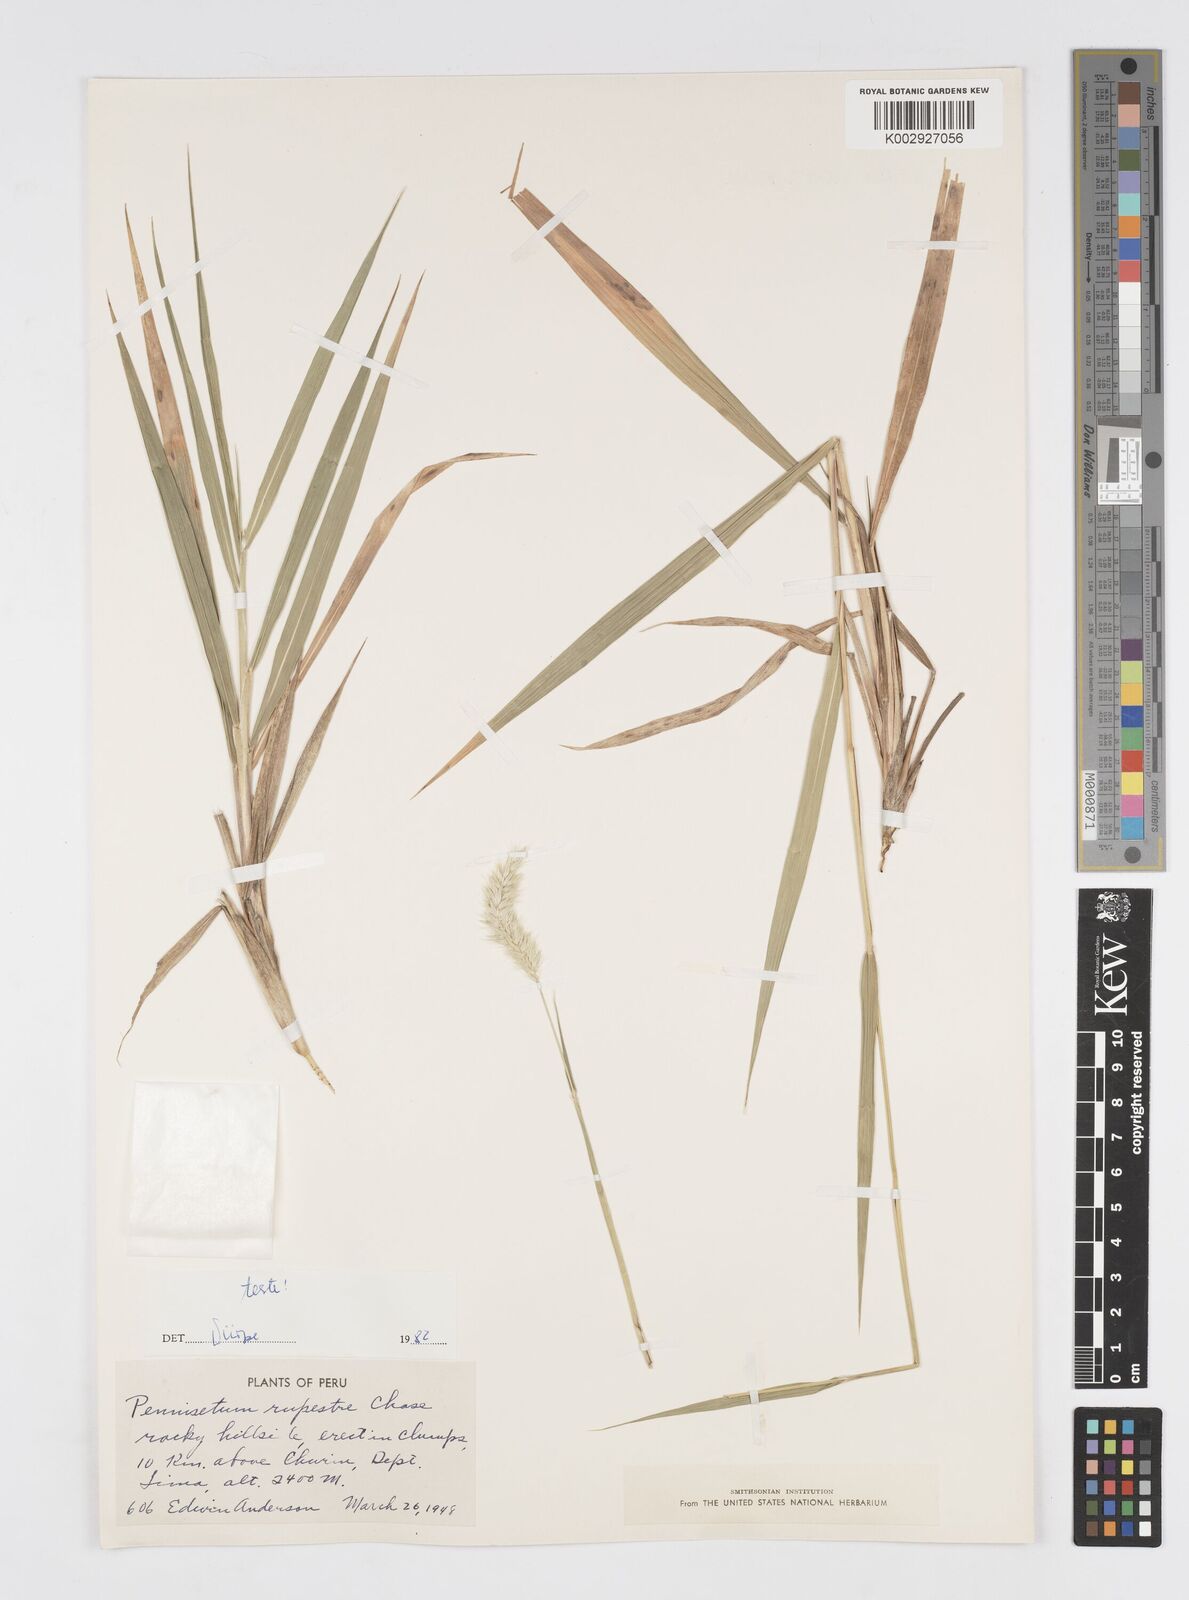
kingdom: Plantae
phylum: Tracheophyta
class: Liliopsida
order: Poales
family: Poaceae
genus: Cenchrus
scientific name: Cenchrus rupestris
